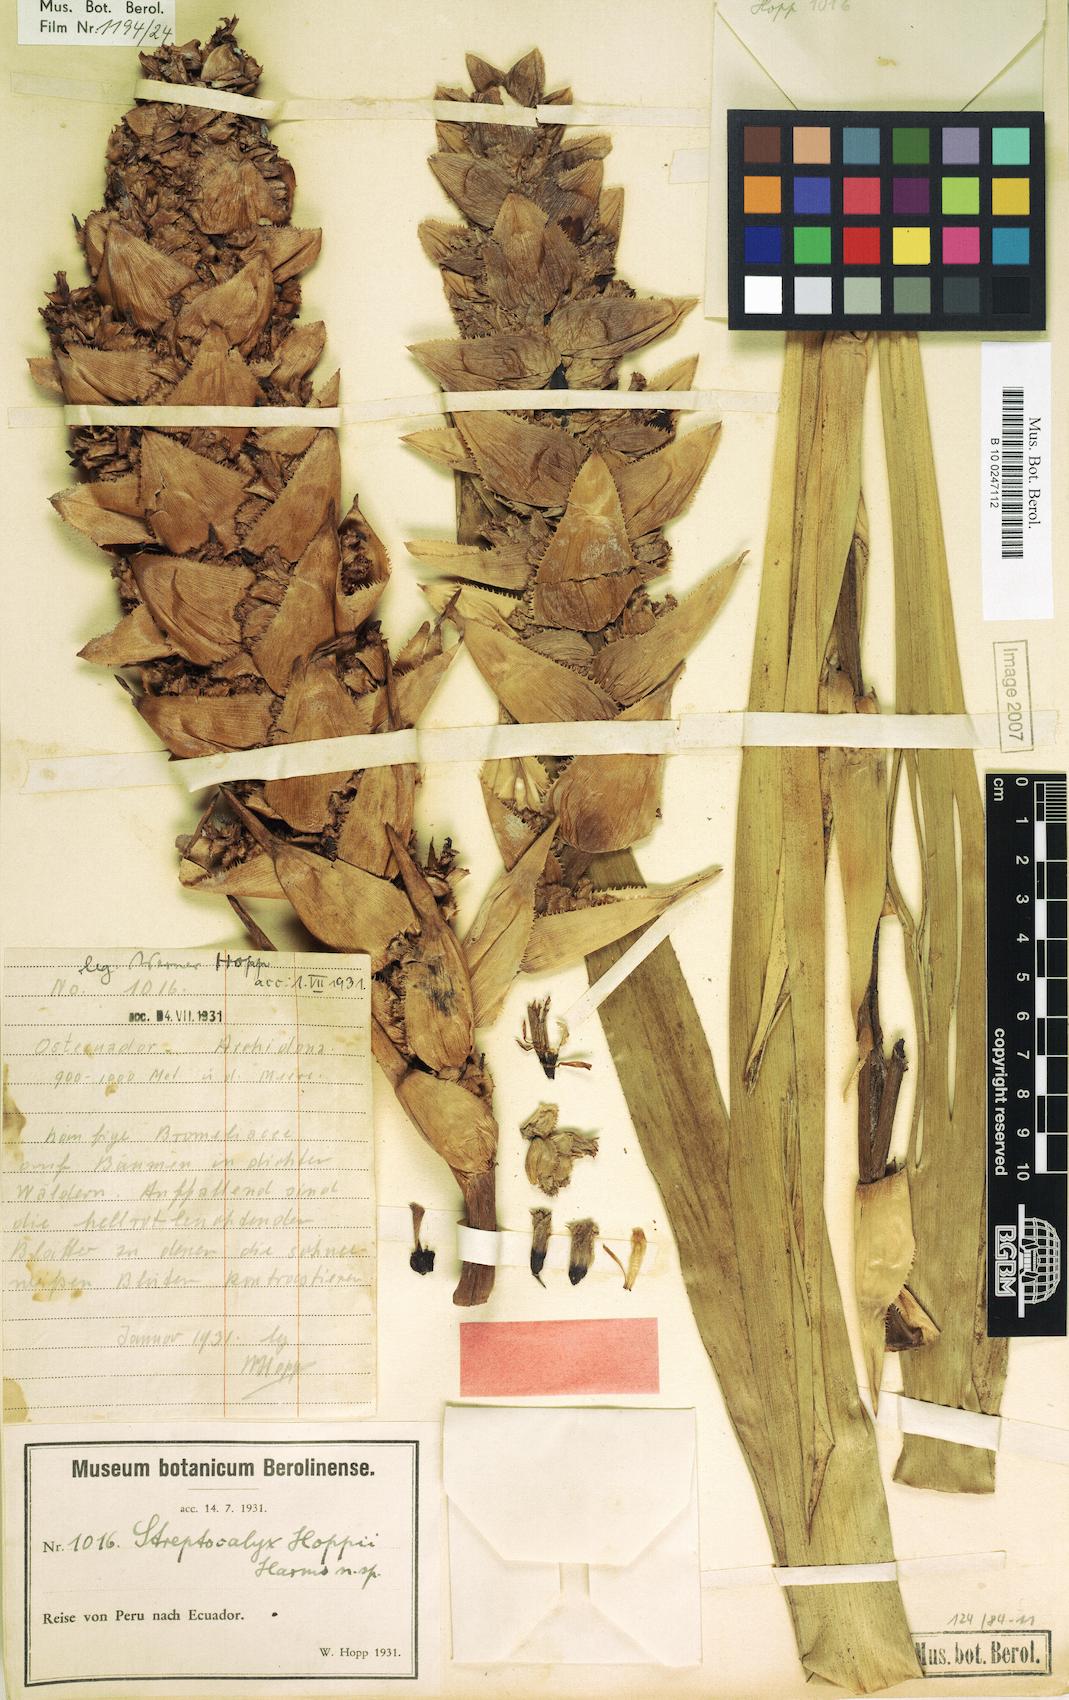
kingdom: Plantae
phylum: Tracheophyta
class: Liliopsida
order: Poales
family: Bromeliaceae
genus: Aechmea
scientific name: Aechmea hoppii
